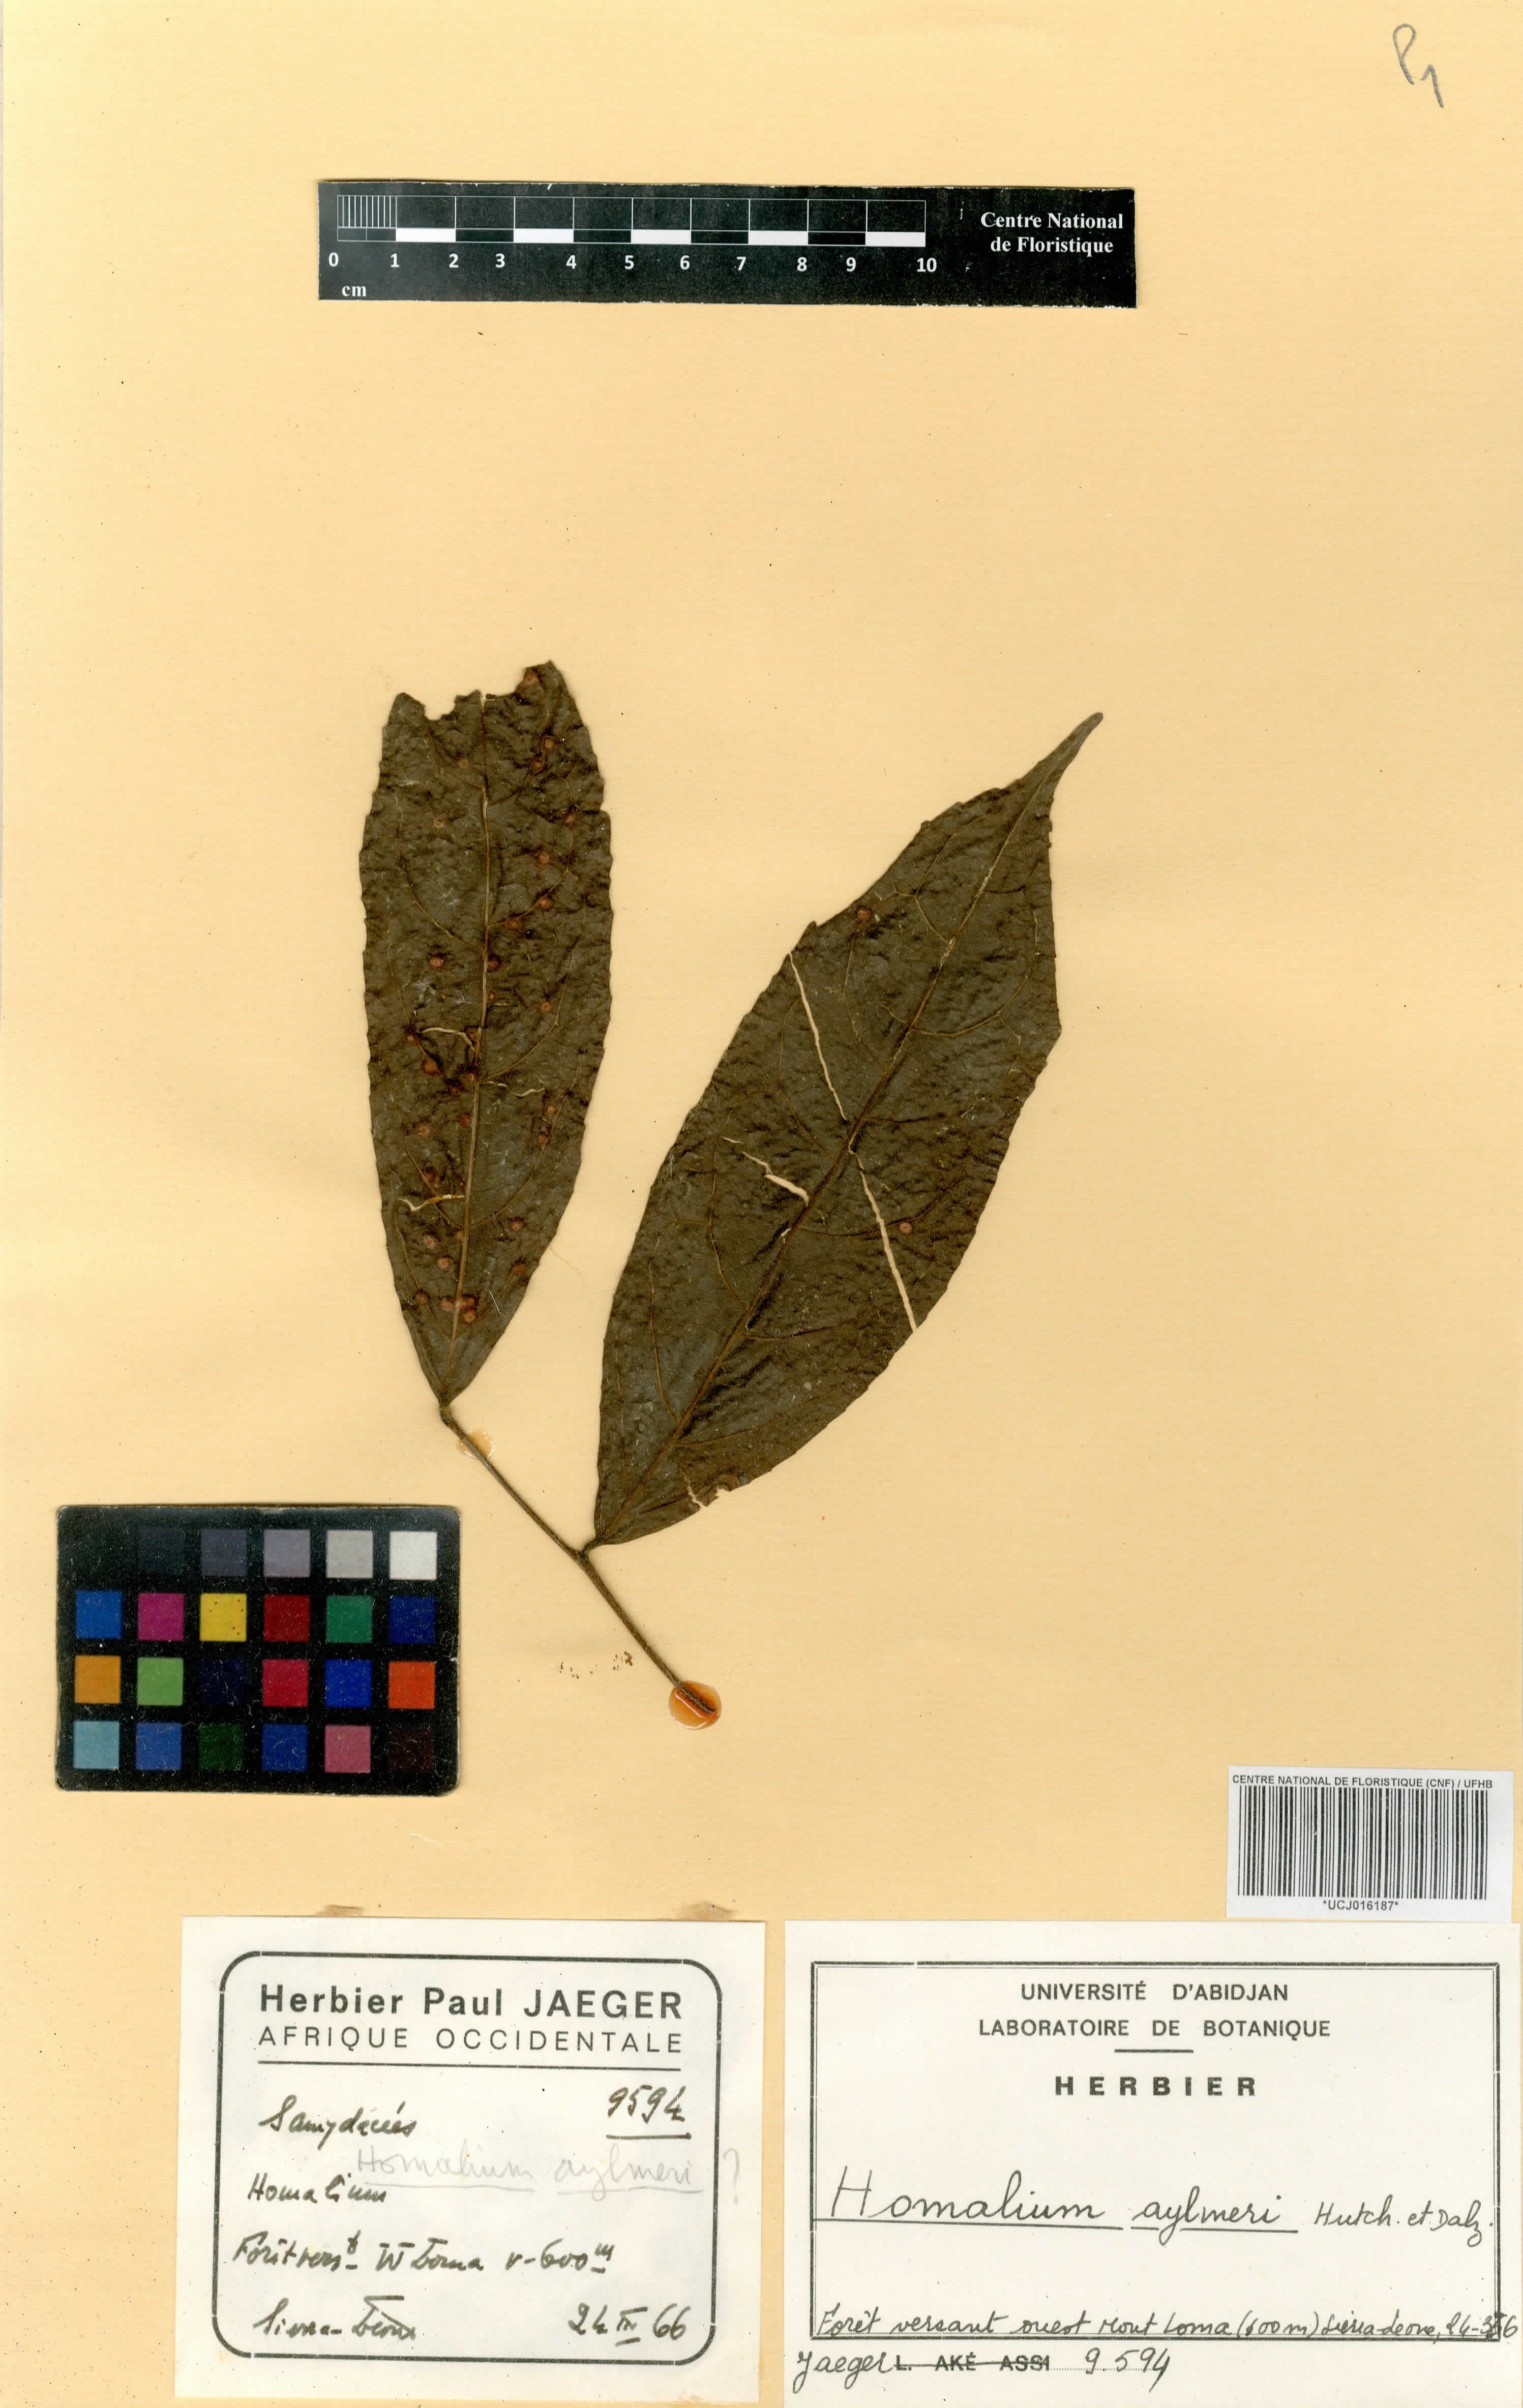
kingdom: Plantae
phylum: Tracheophyta
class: Magnoliopsida
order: Malpighiales
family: Salicaceae
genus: Homalium
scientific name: Homalium longistylum
